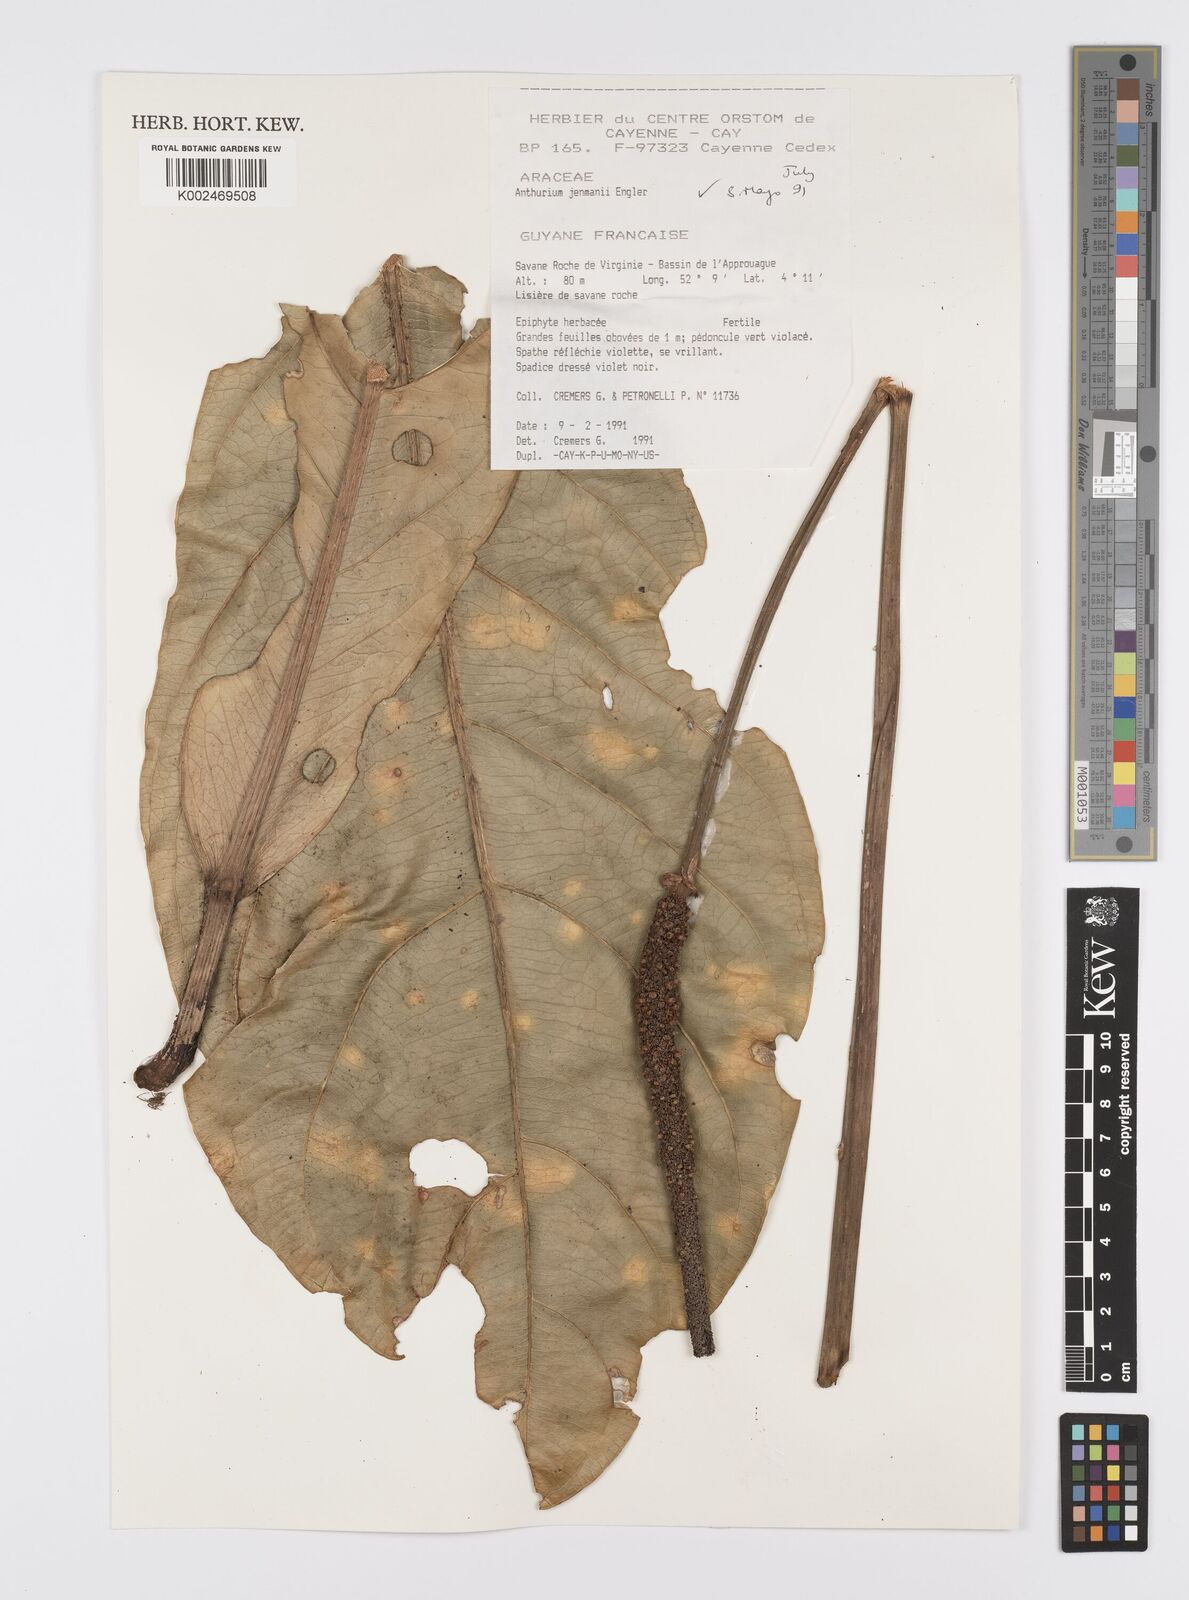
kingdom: Plantae
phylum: Tracheophyta
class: Liliopsida
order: Alismatales
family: Araceae
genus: Anthurium
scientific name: Anthurium jenmanii
